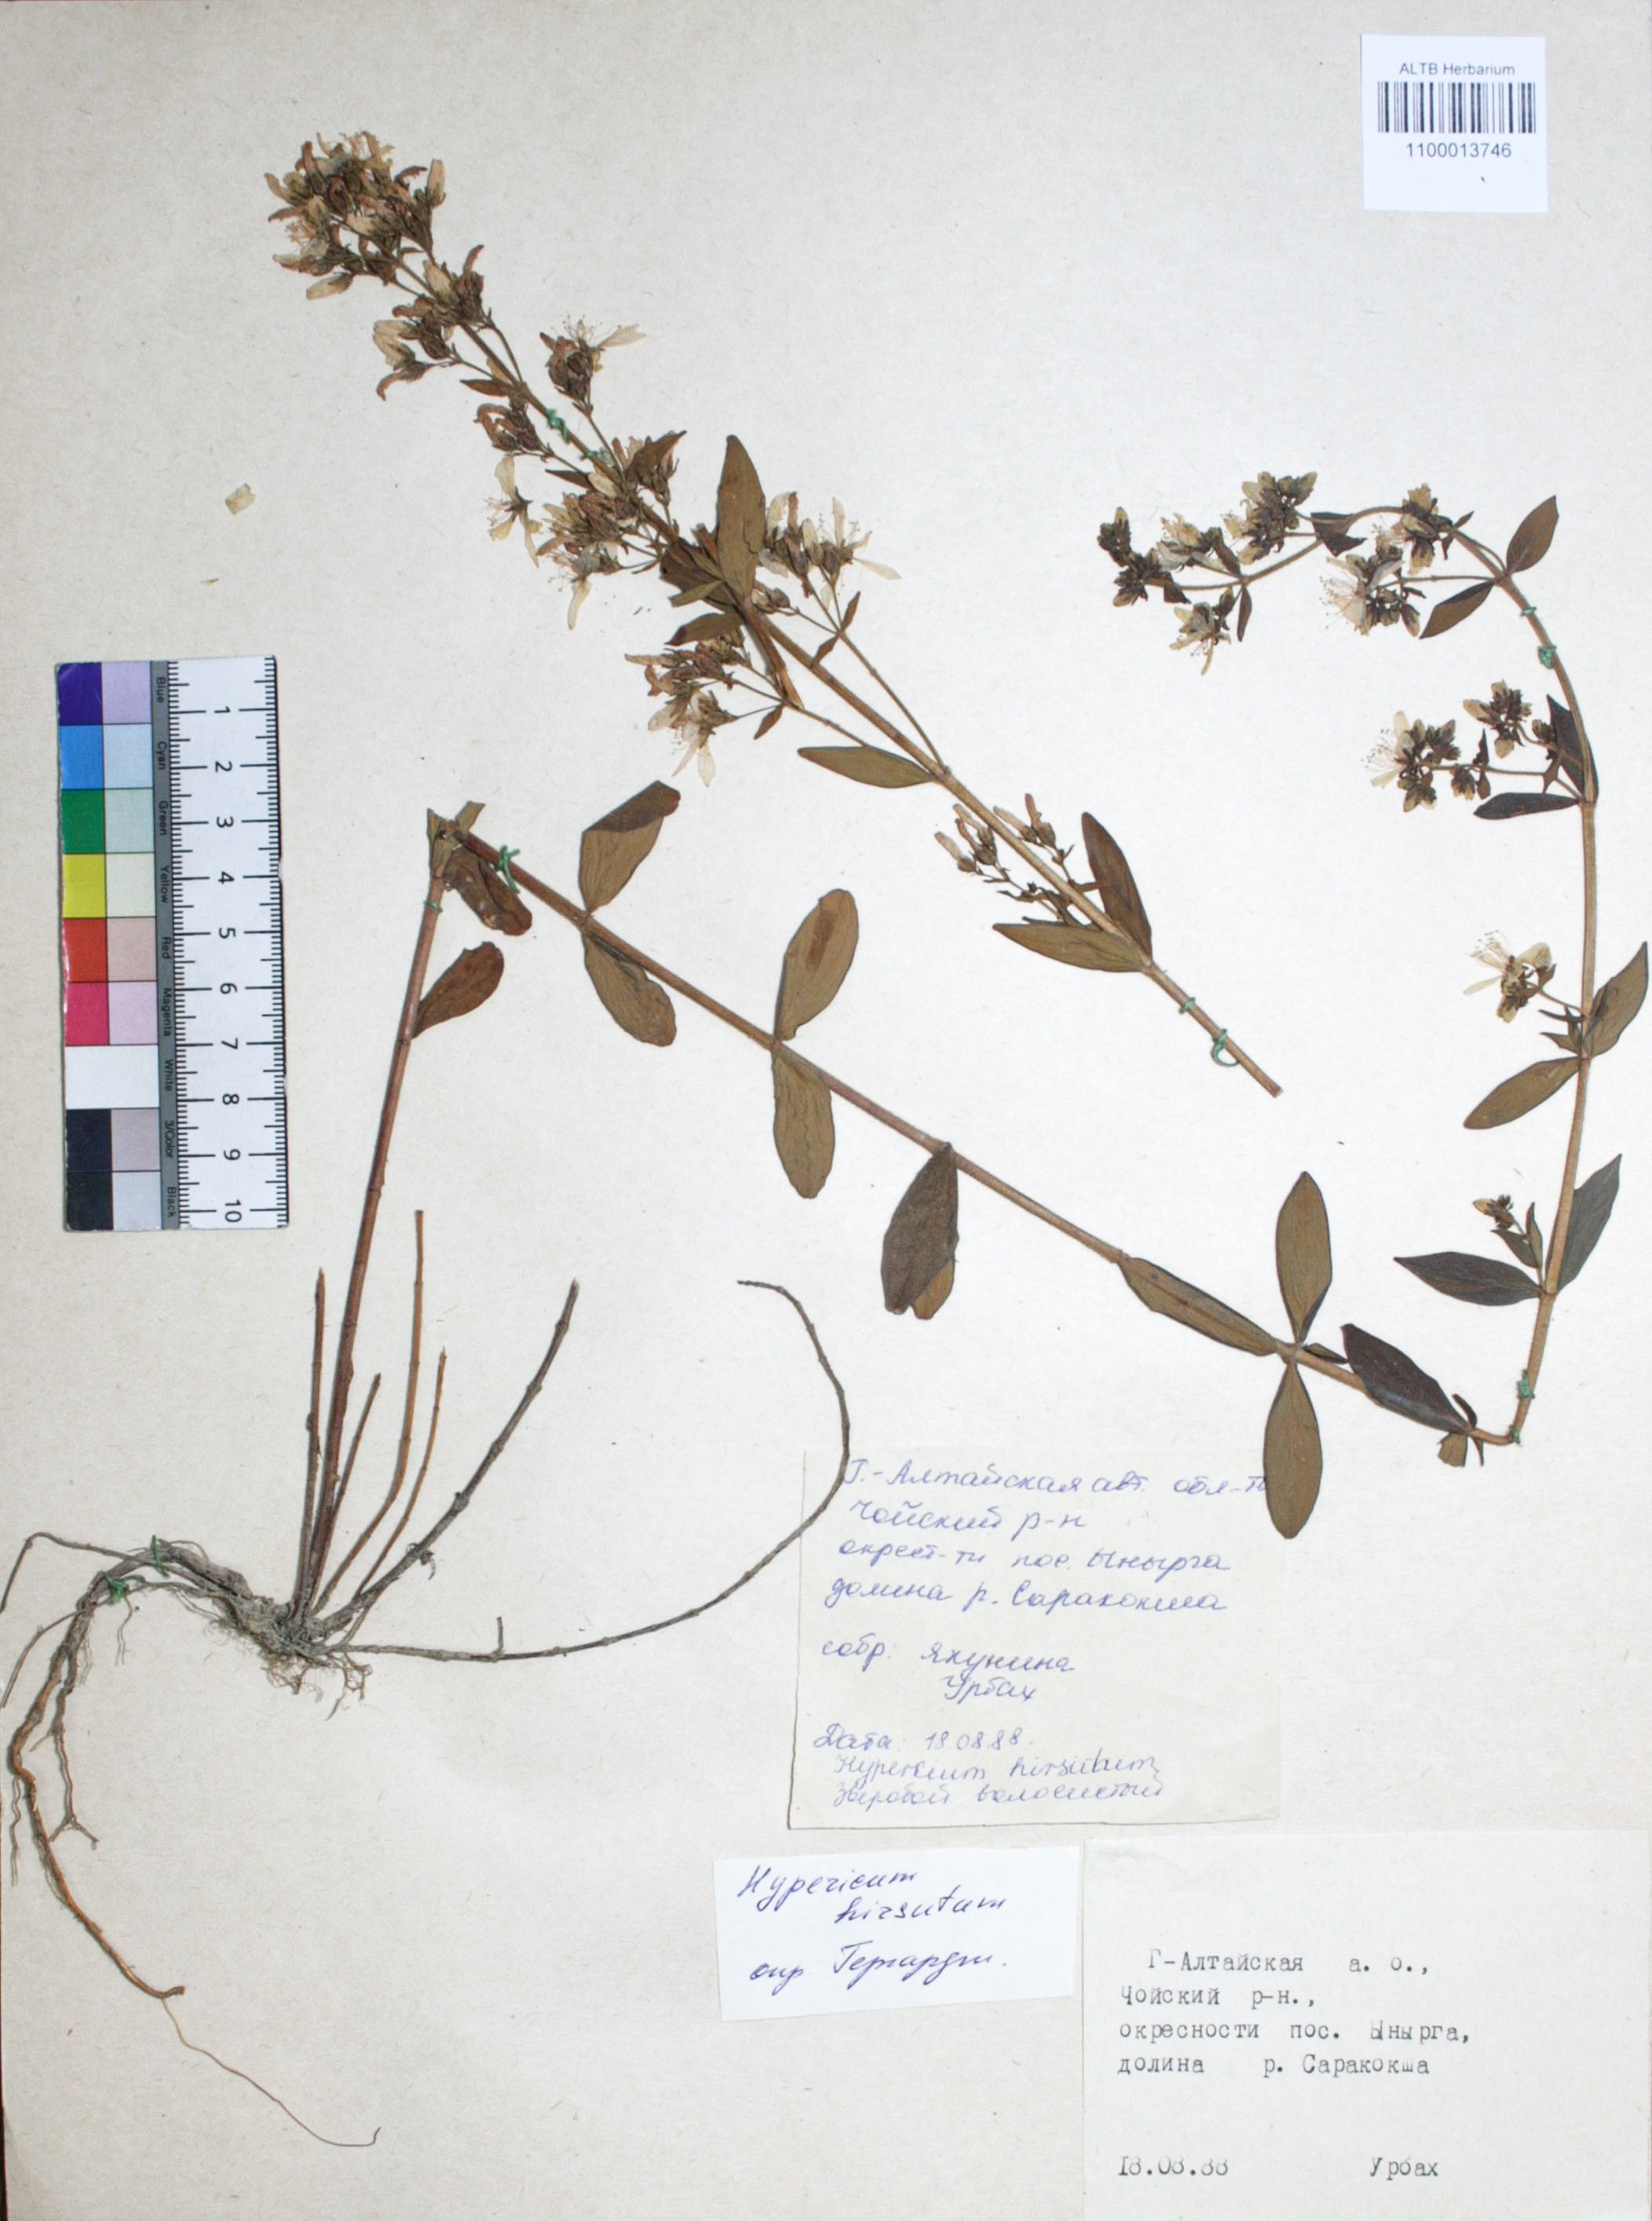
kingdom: Plantae
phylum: Tracheophyta
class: Magnoliopsida
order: Malpighiales
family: Hypericaceae
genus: Hypericum
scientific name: Hypericum hirsutum
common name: Hairy st. john's-wort
